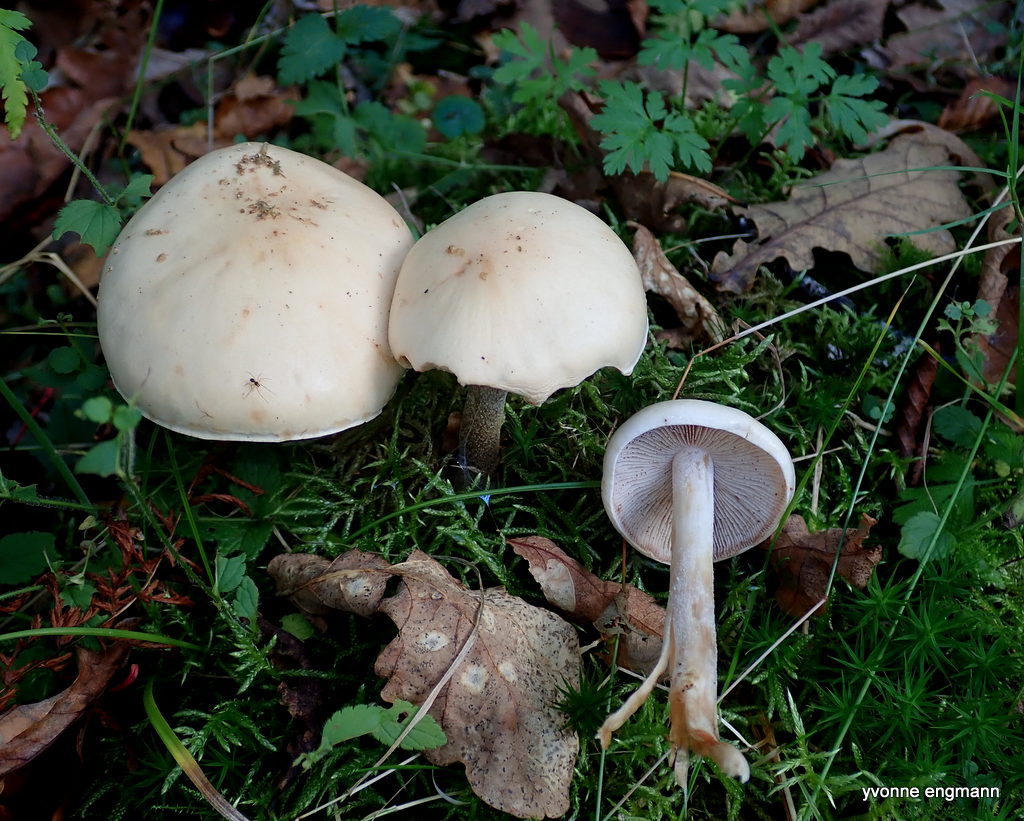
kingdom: Fungi
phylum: Basidiomycota
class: Agaricomycetes
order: Agaricales
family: Hymenogastraceae
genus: Hebeloma
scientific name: Hebeloma
